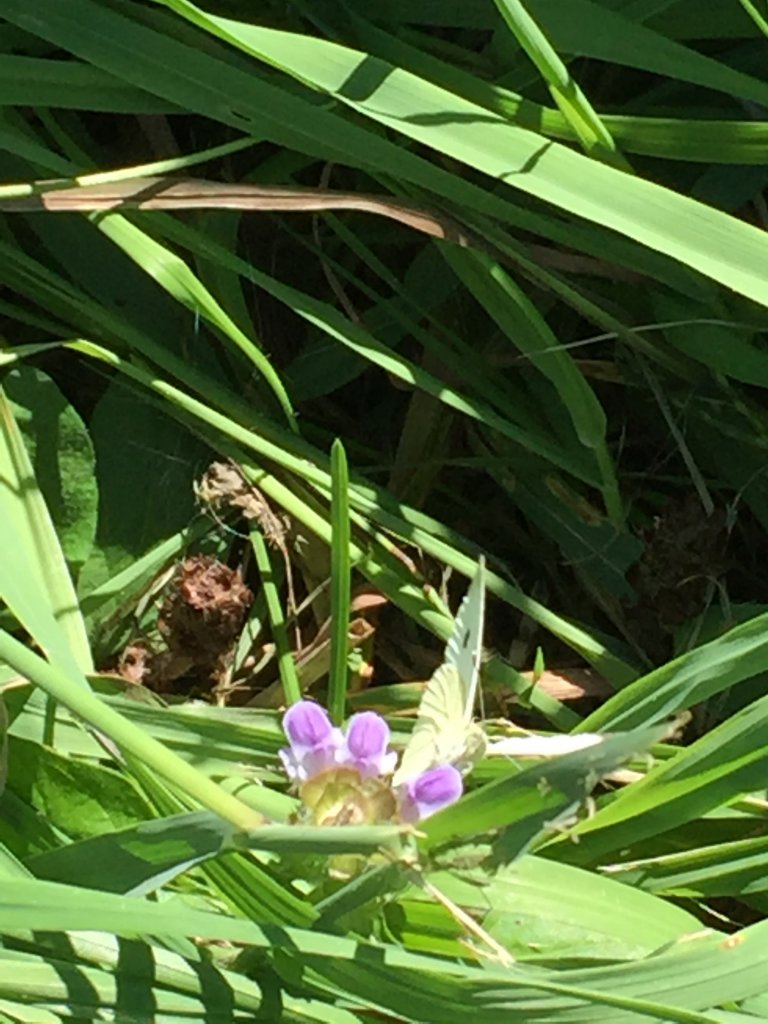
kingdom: Animalia
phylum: Arthropoda
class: Insecta
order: Lepidoptera
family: Pieridae
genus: Pieris
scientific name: Pieris rapae
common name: Cabbage White
